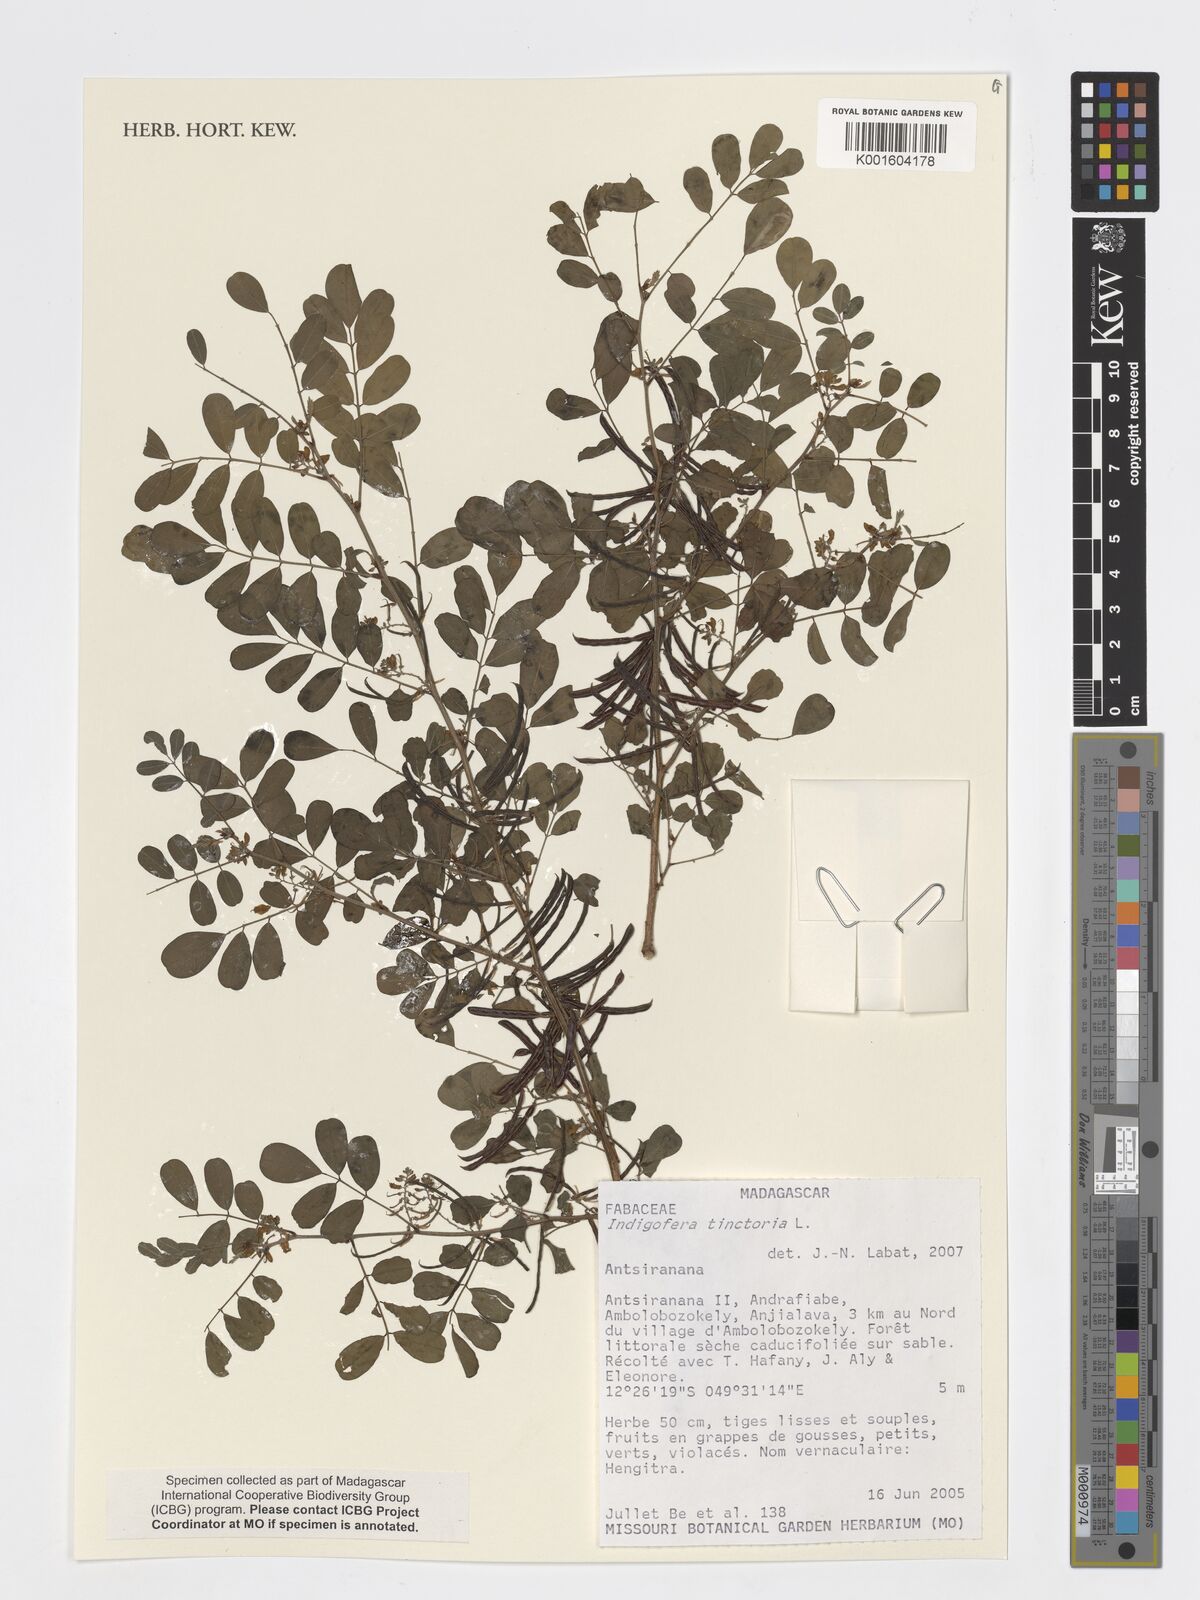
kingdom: Plantae
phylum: Tracheophyta
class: Magnoliopsida
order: Fabales
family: Fabaceae
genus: Indigofera
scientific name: Indigofera tinctoria
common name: True indigo
